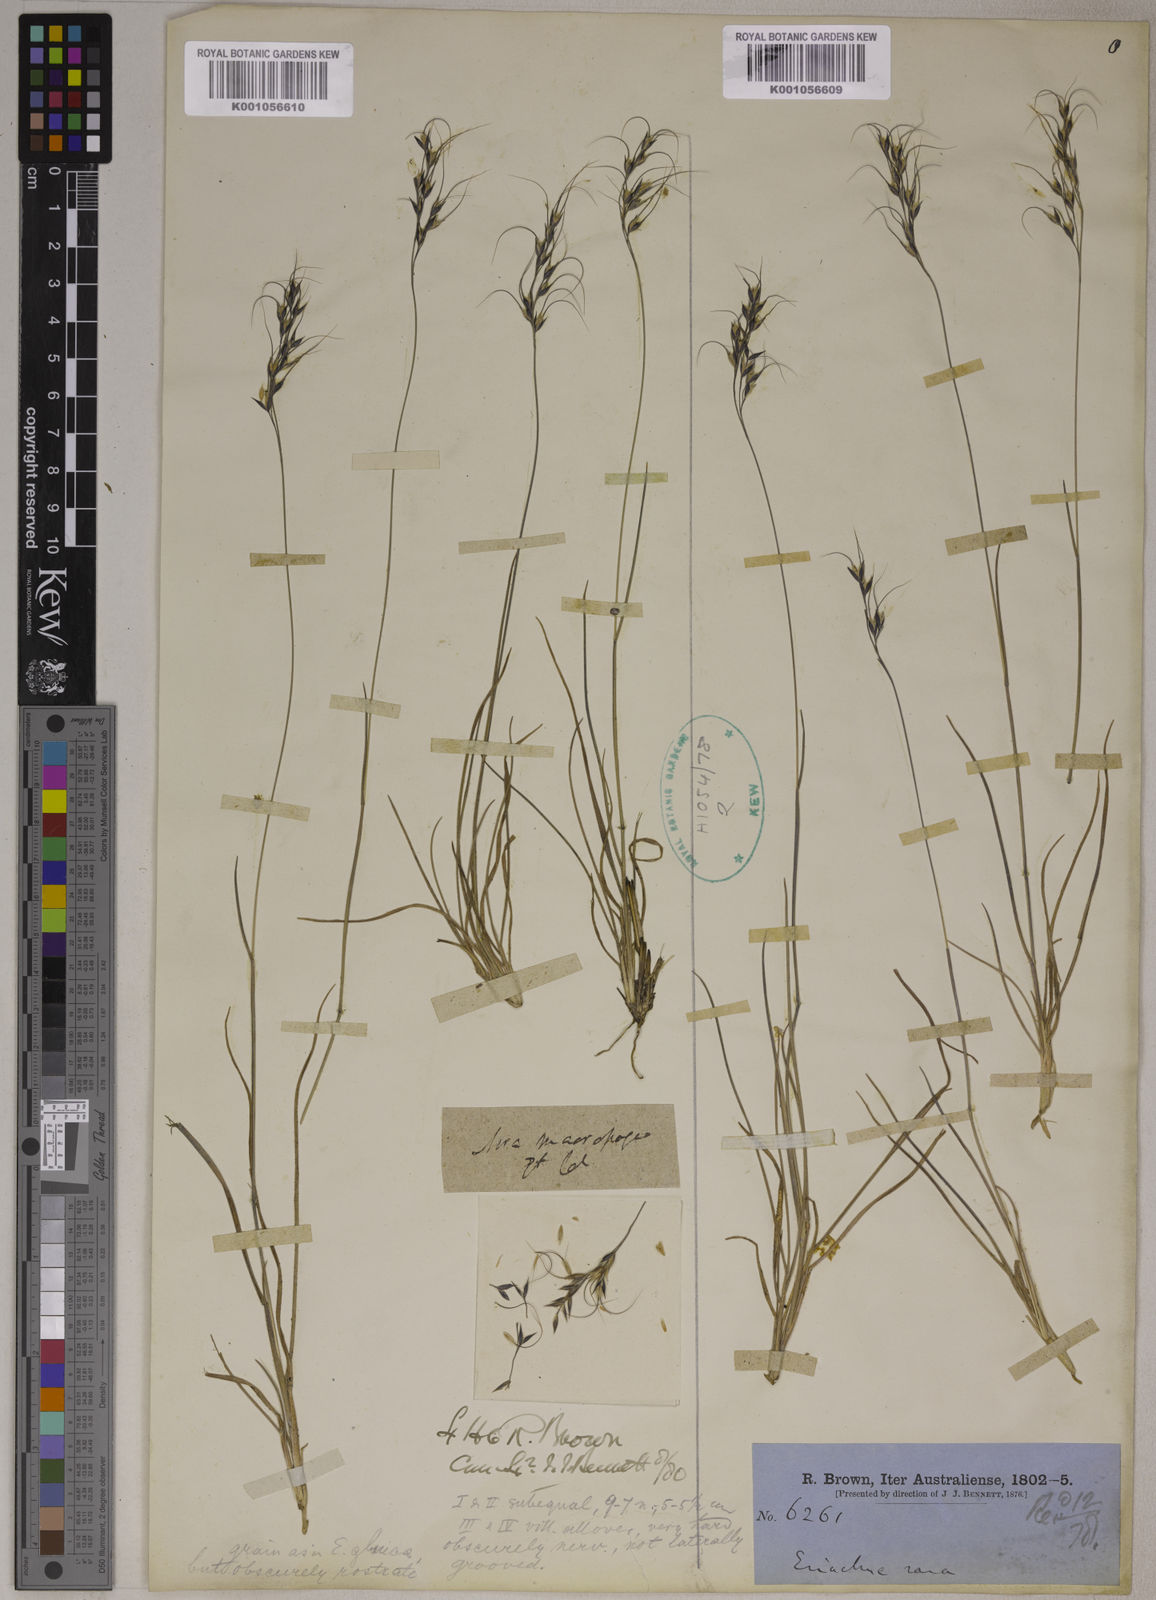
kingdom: Plantae
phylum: Tracheophyta
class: Liliopsida
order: Poales
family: Poaceae
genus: Eriachne
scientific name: Eriachne rara
